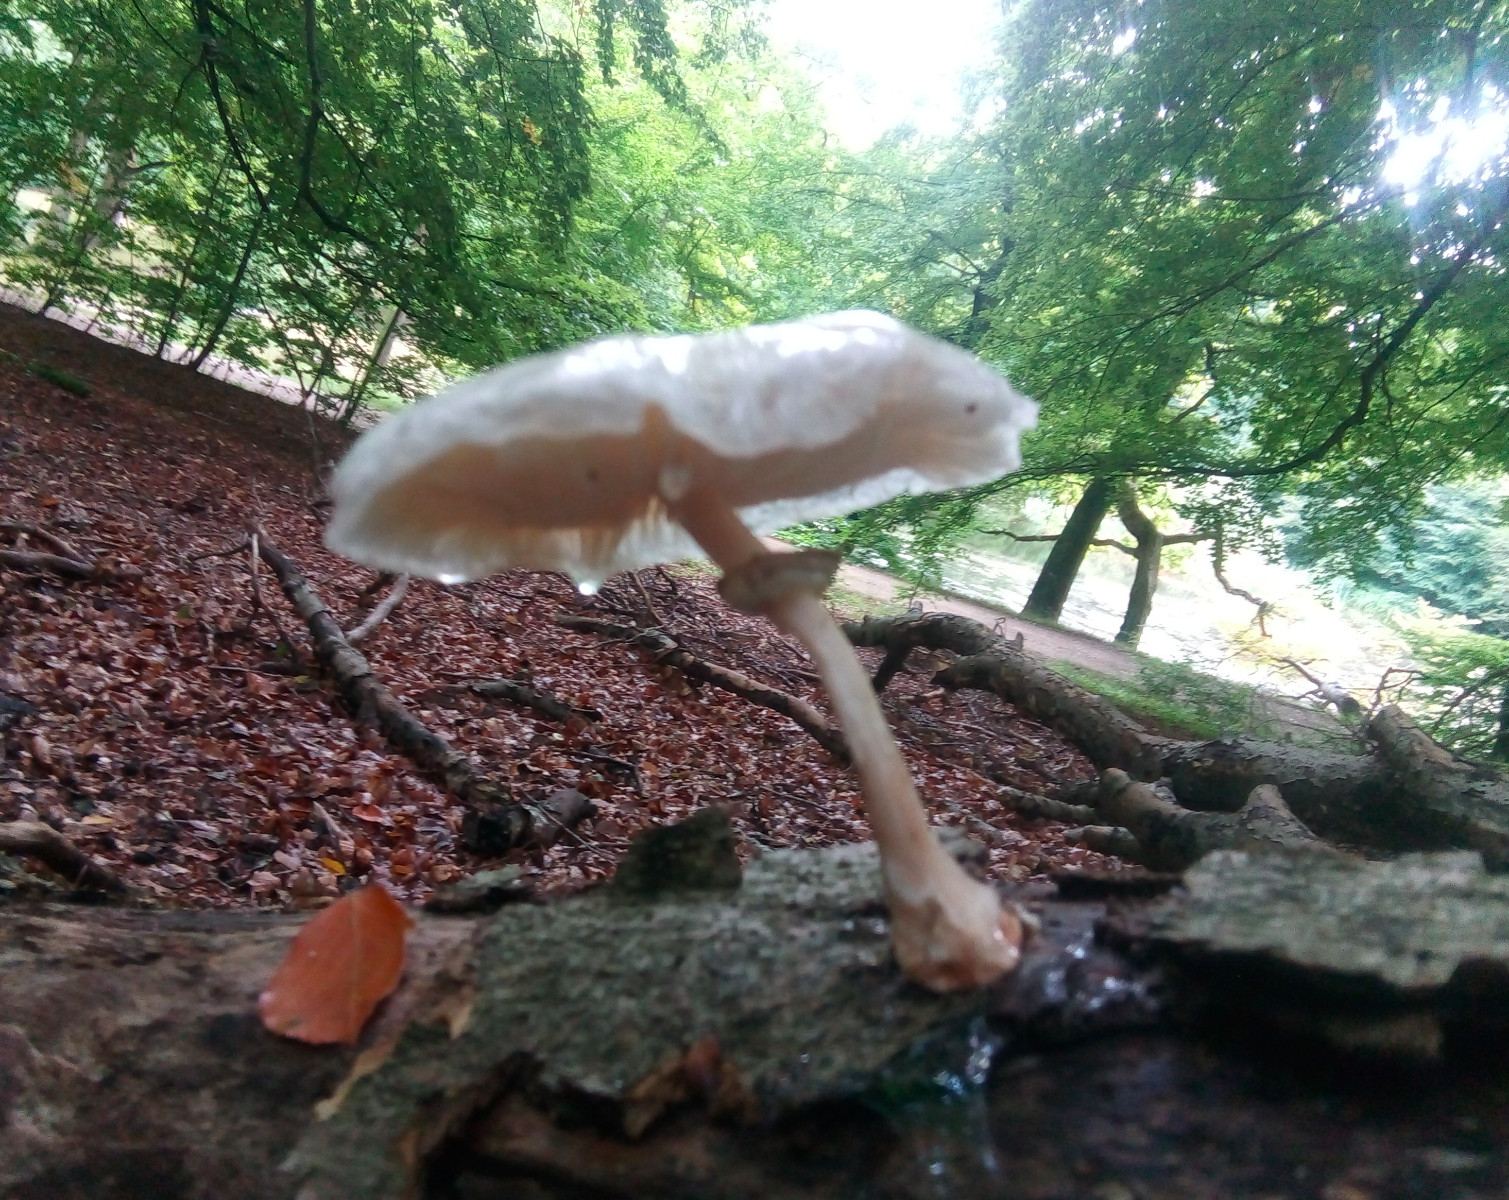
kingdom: Fungi
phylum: Basidiomycota
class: Agaricomycetes
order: Agaricales
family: Physalacriaceae
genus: Mucidula
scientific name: Mucidula mucida
